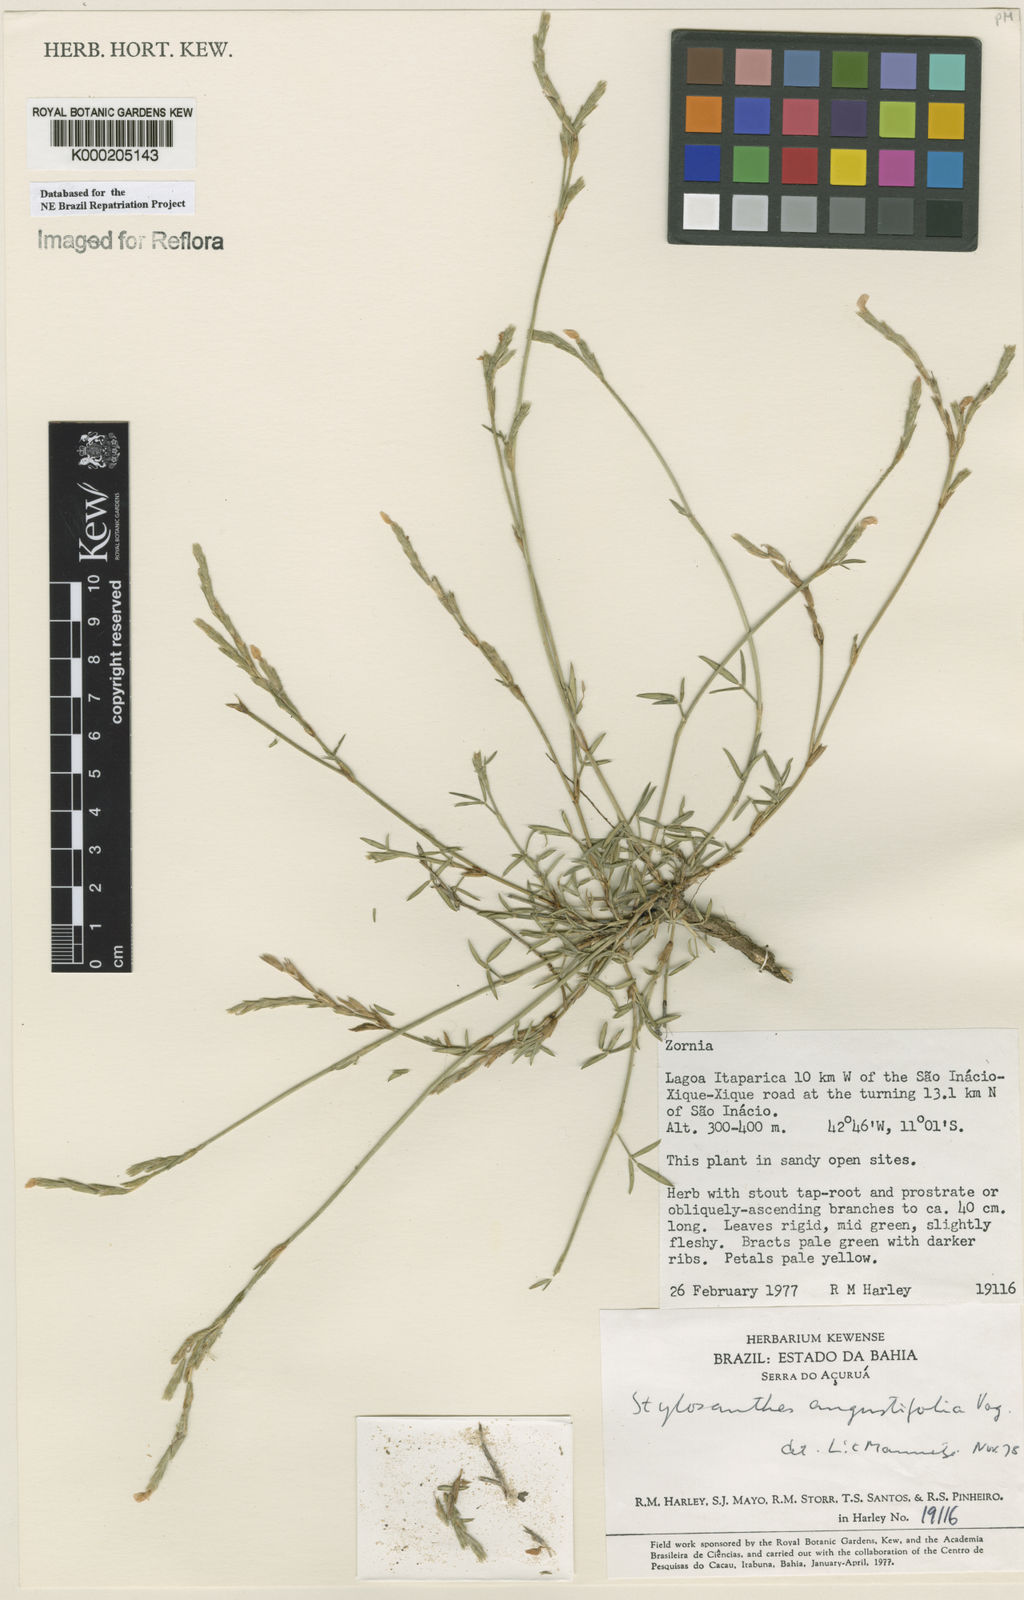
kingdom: Plantae
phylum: Tracheophyta
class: Magnoliopsida
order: Fabales
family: Fabaceae
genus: Stylosanthes
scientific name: Stylosanthes angustifolia
